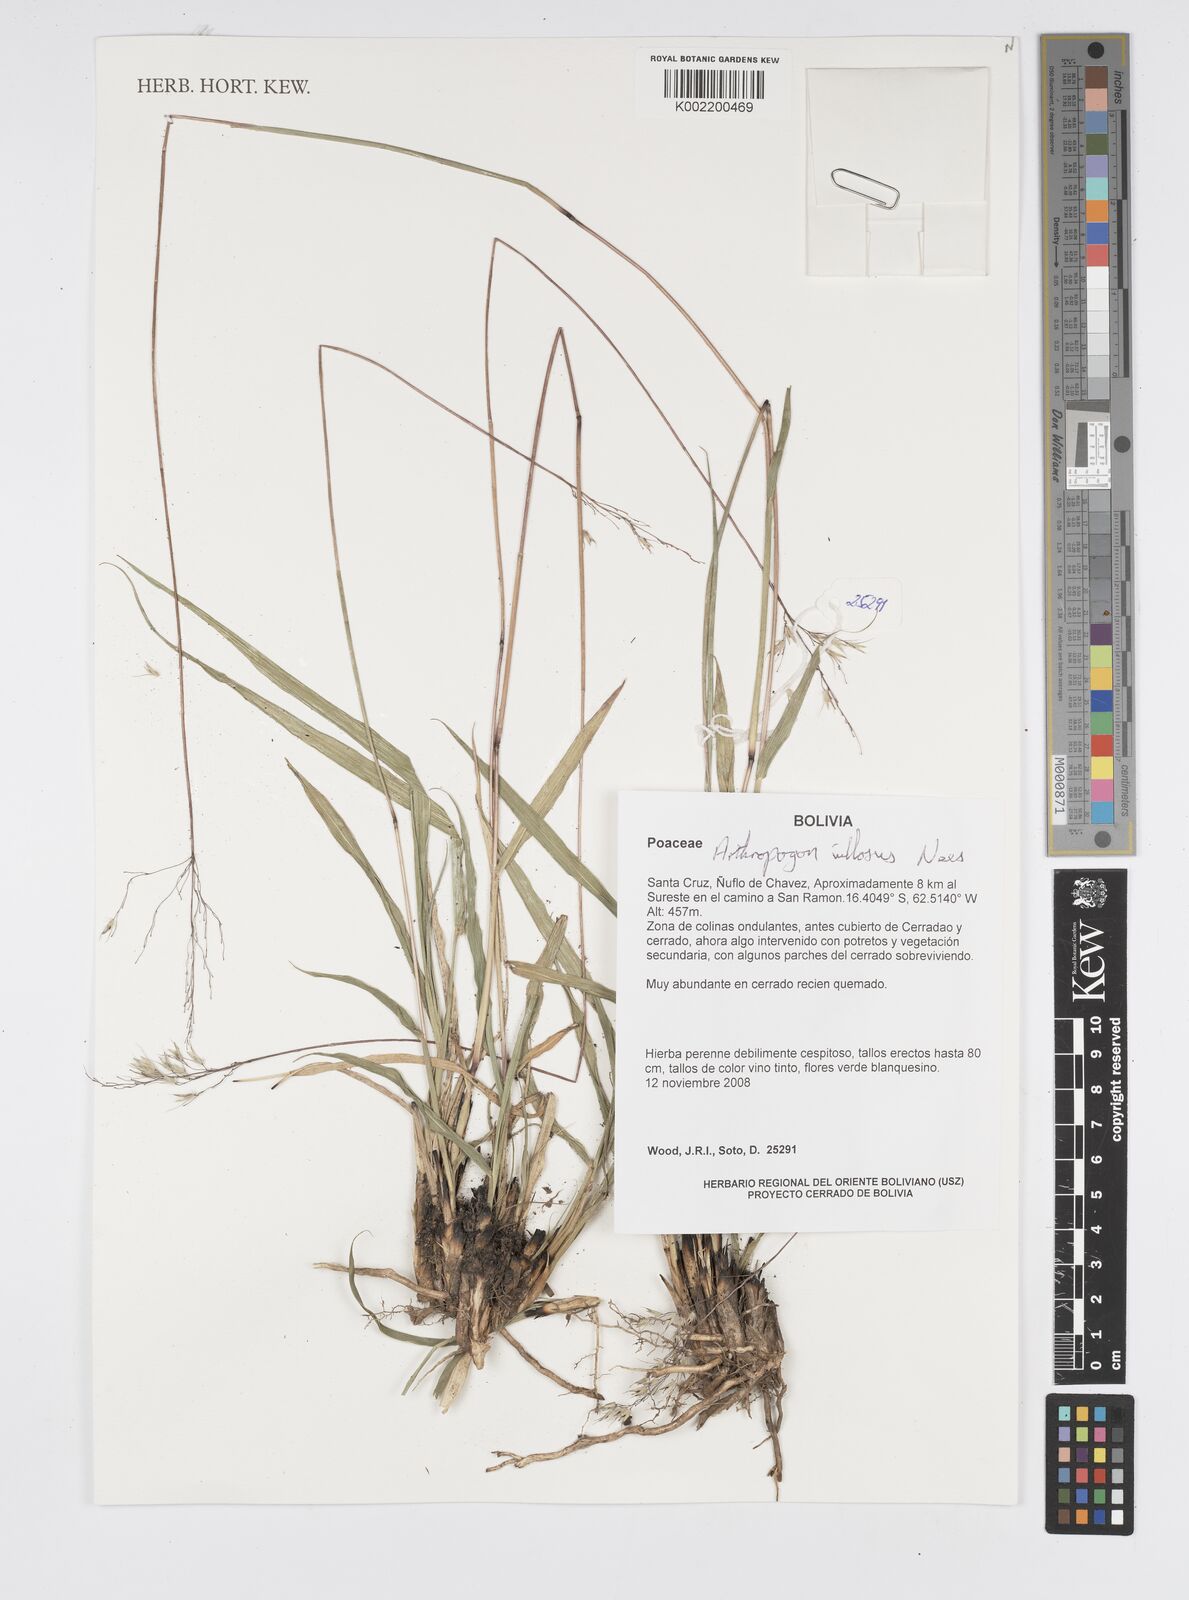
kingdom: Plantae
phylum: Tracheophyta
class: Liliopsida
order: Poales
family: Poaceae
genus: Arthropogon
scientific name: Arthropogon villosus
